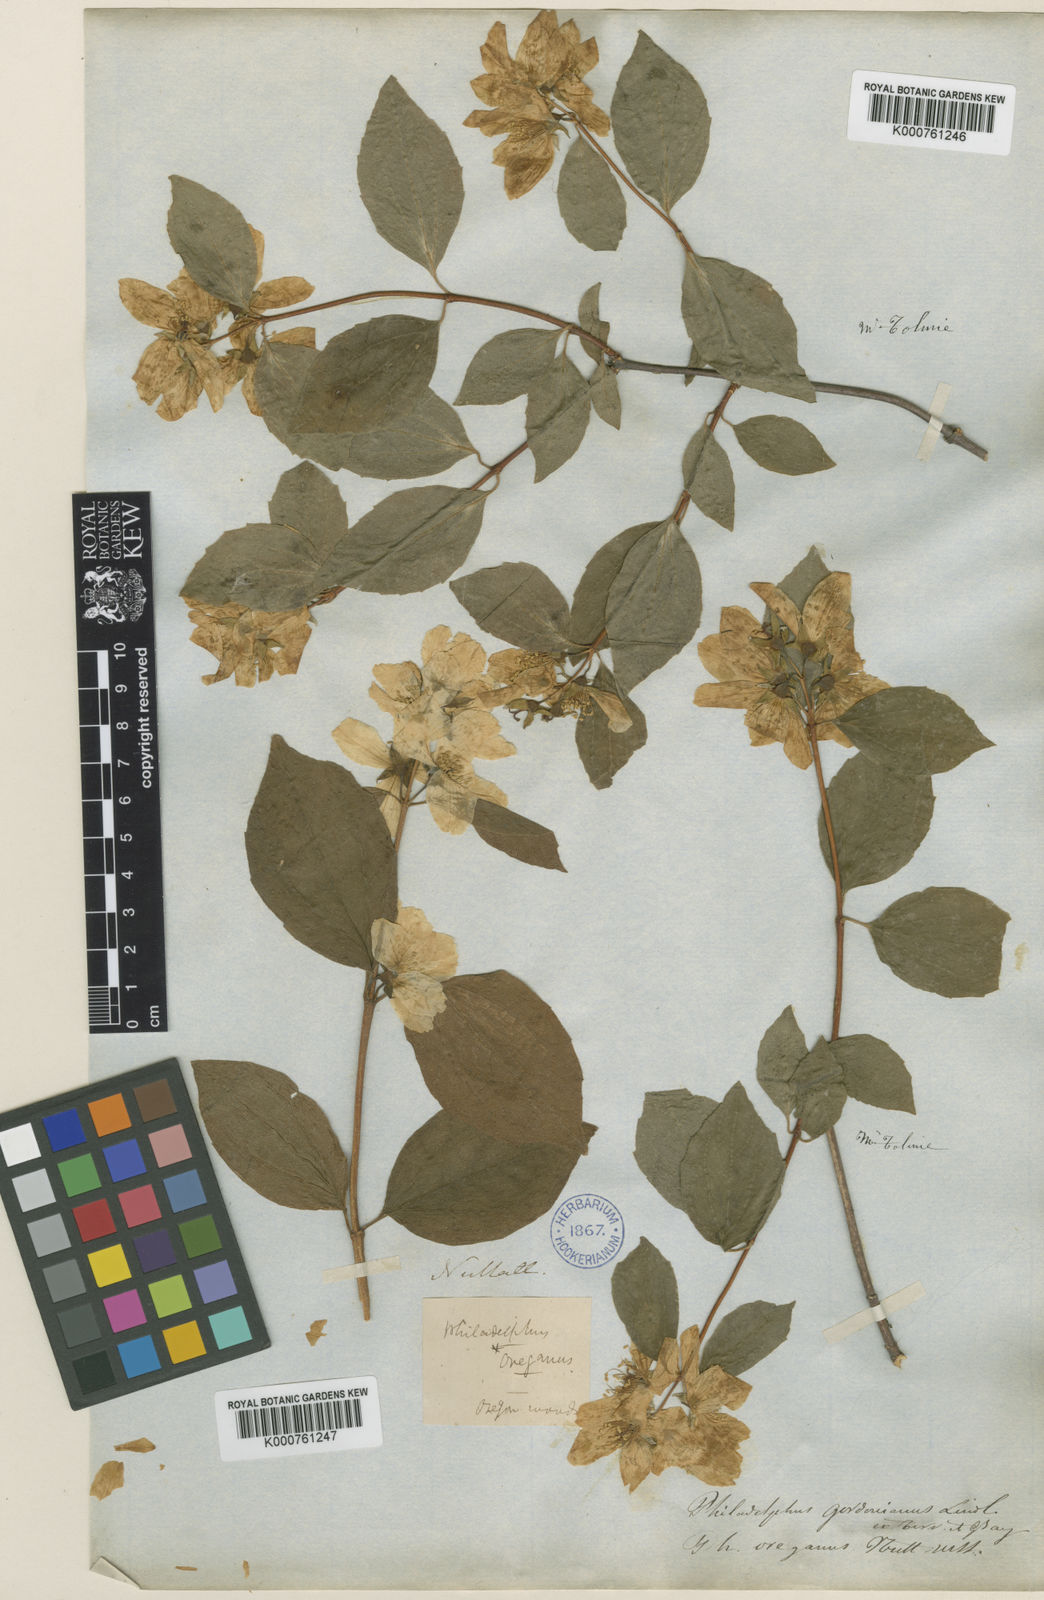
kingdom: Plantae
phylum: Tracheophyta
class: Magnoliopsida
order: Cornales
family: Hydrangeaceae
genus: Philadelphus
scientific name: Philadelphus lewisii
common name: Lewis's mock orange
